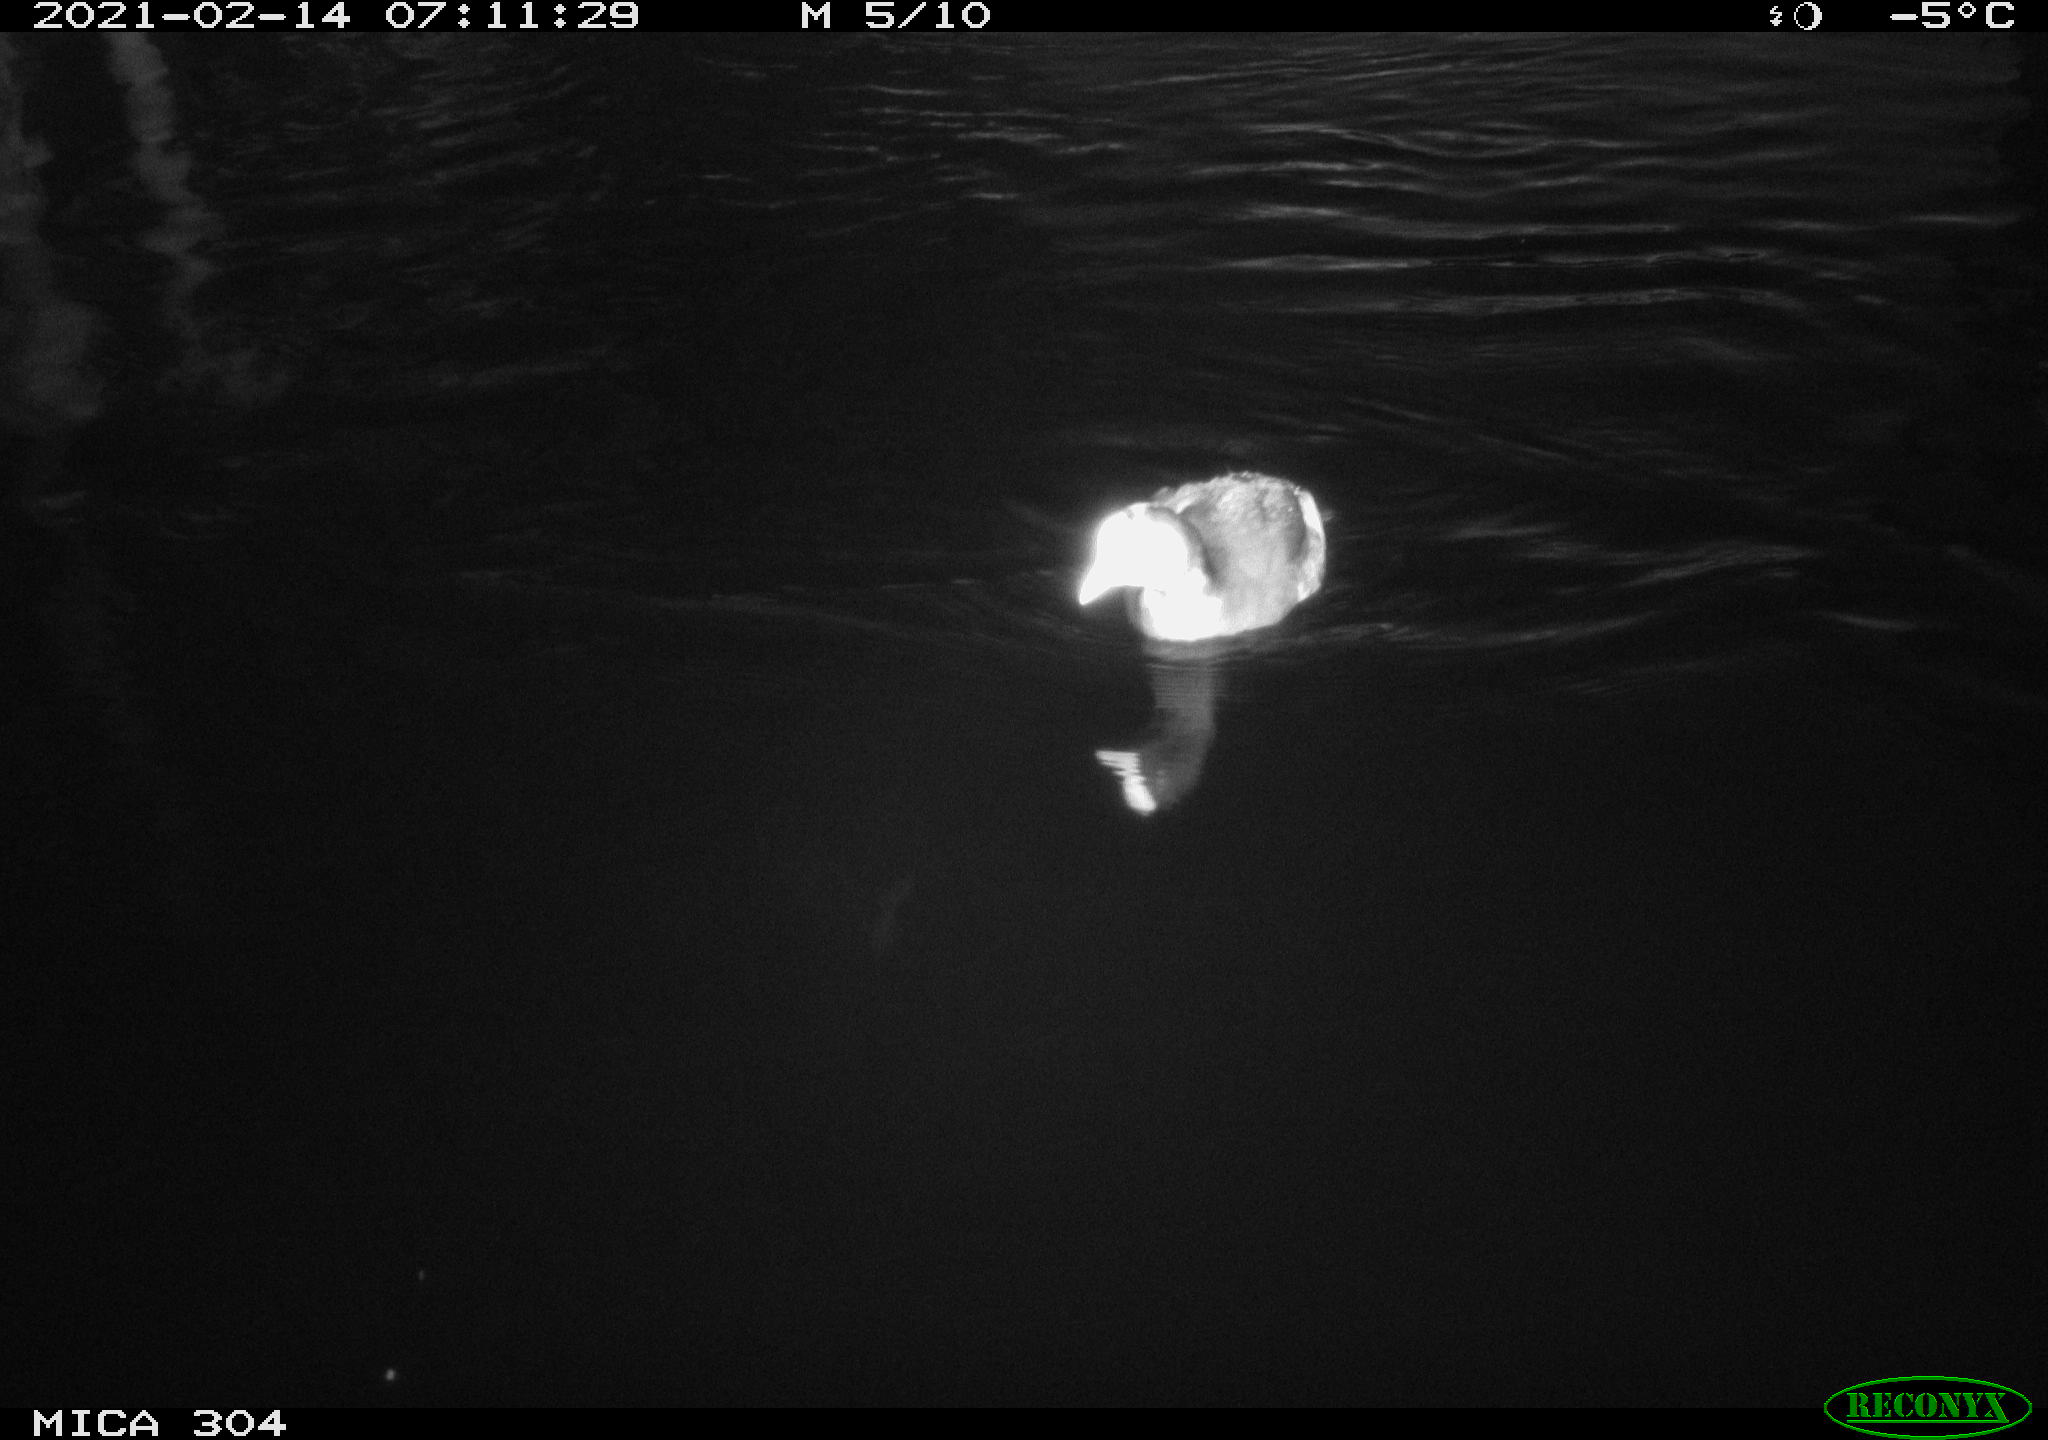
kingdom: Animalia
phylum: Chordata
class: Aves
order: Gruiformes
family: Rallidae
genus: Gallinula
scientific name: Gallinula chloropus
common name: Common moorhen
